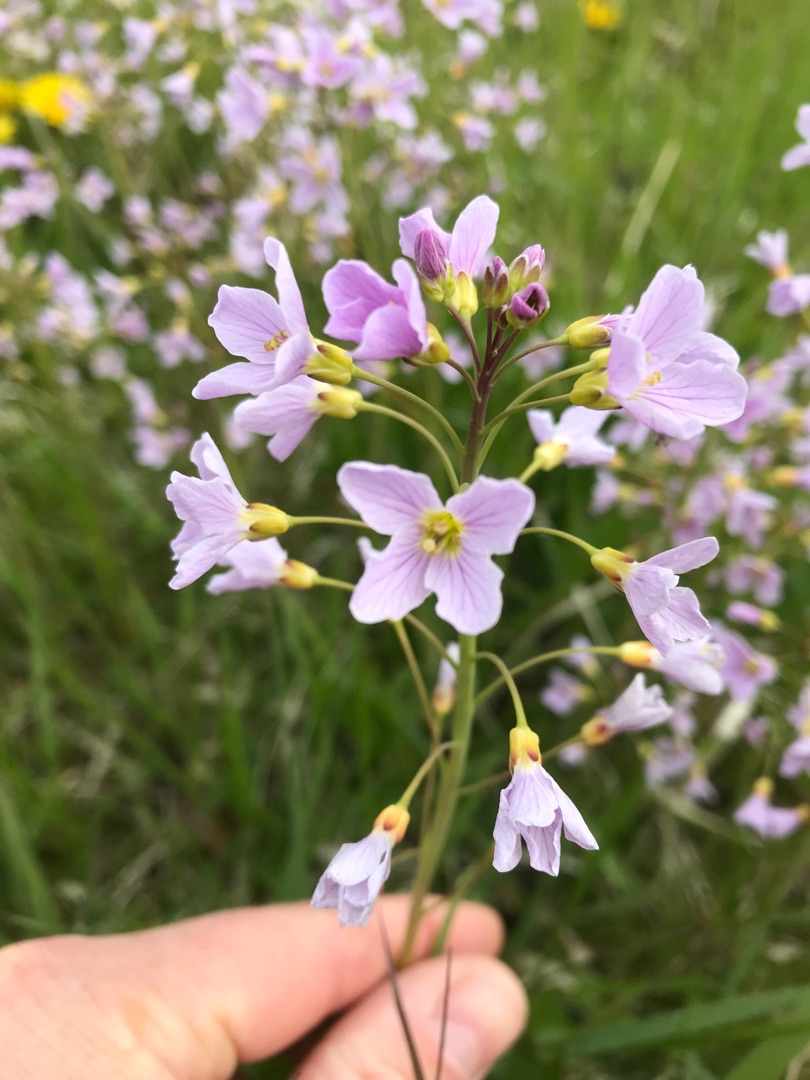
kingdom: Plantae
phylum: Tracheophyta
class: Magnoliopsida
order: Brassicales
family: Brassicaceae
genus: Cardamine
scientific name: Cardamine pratensis
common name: Engkarse
